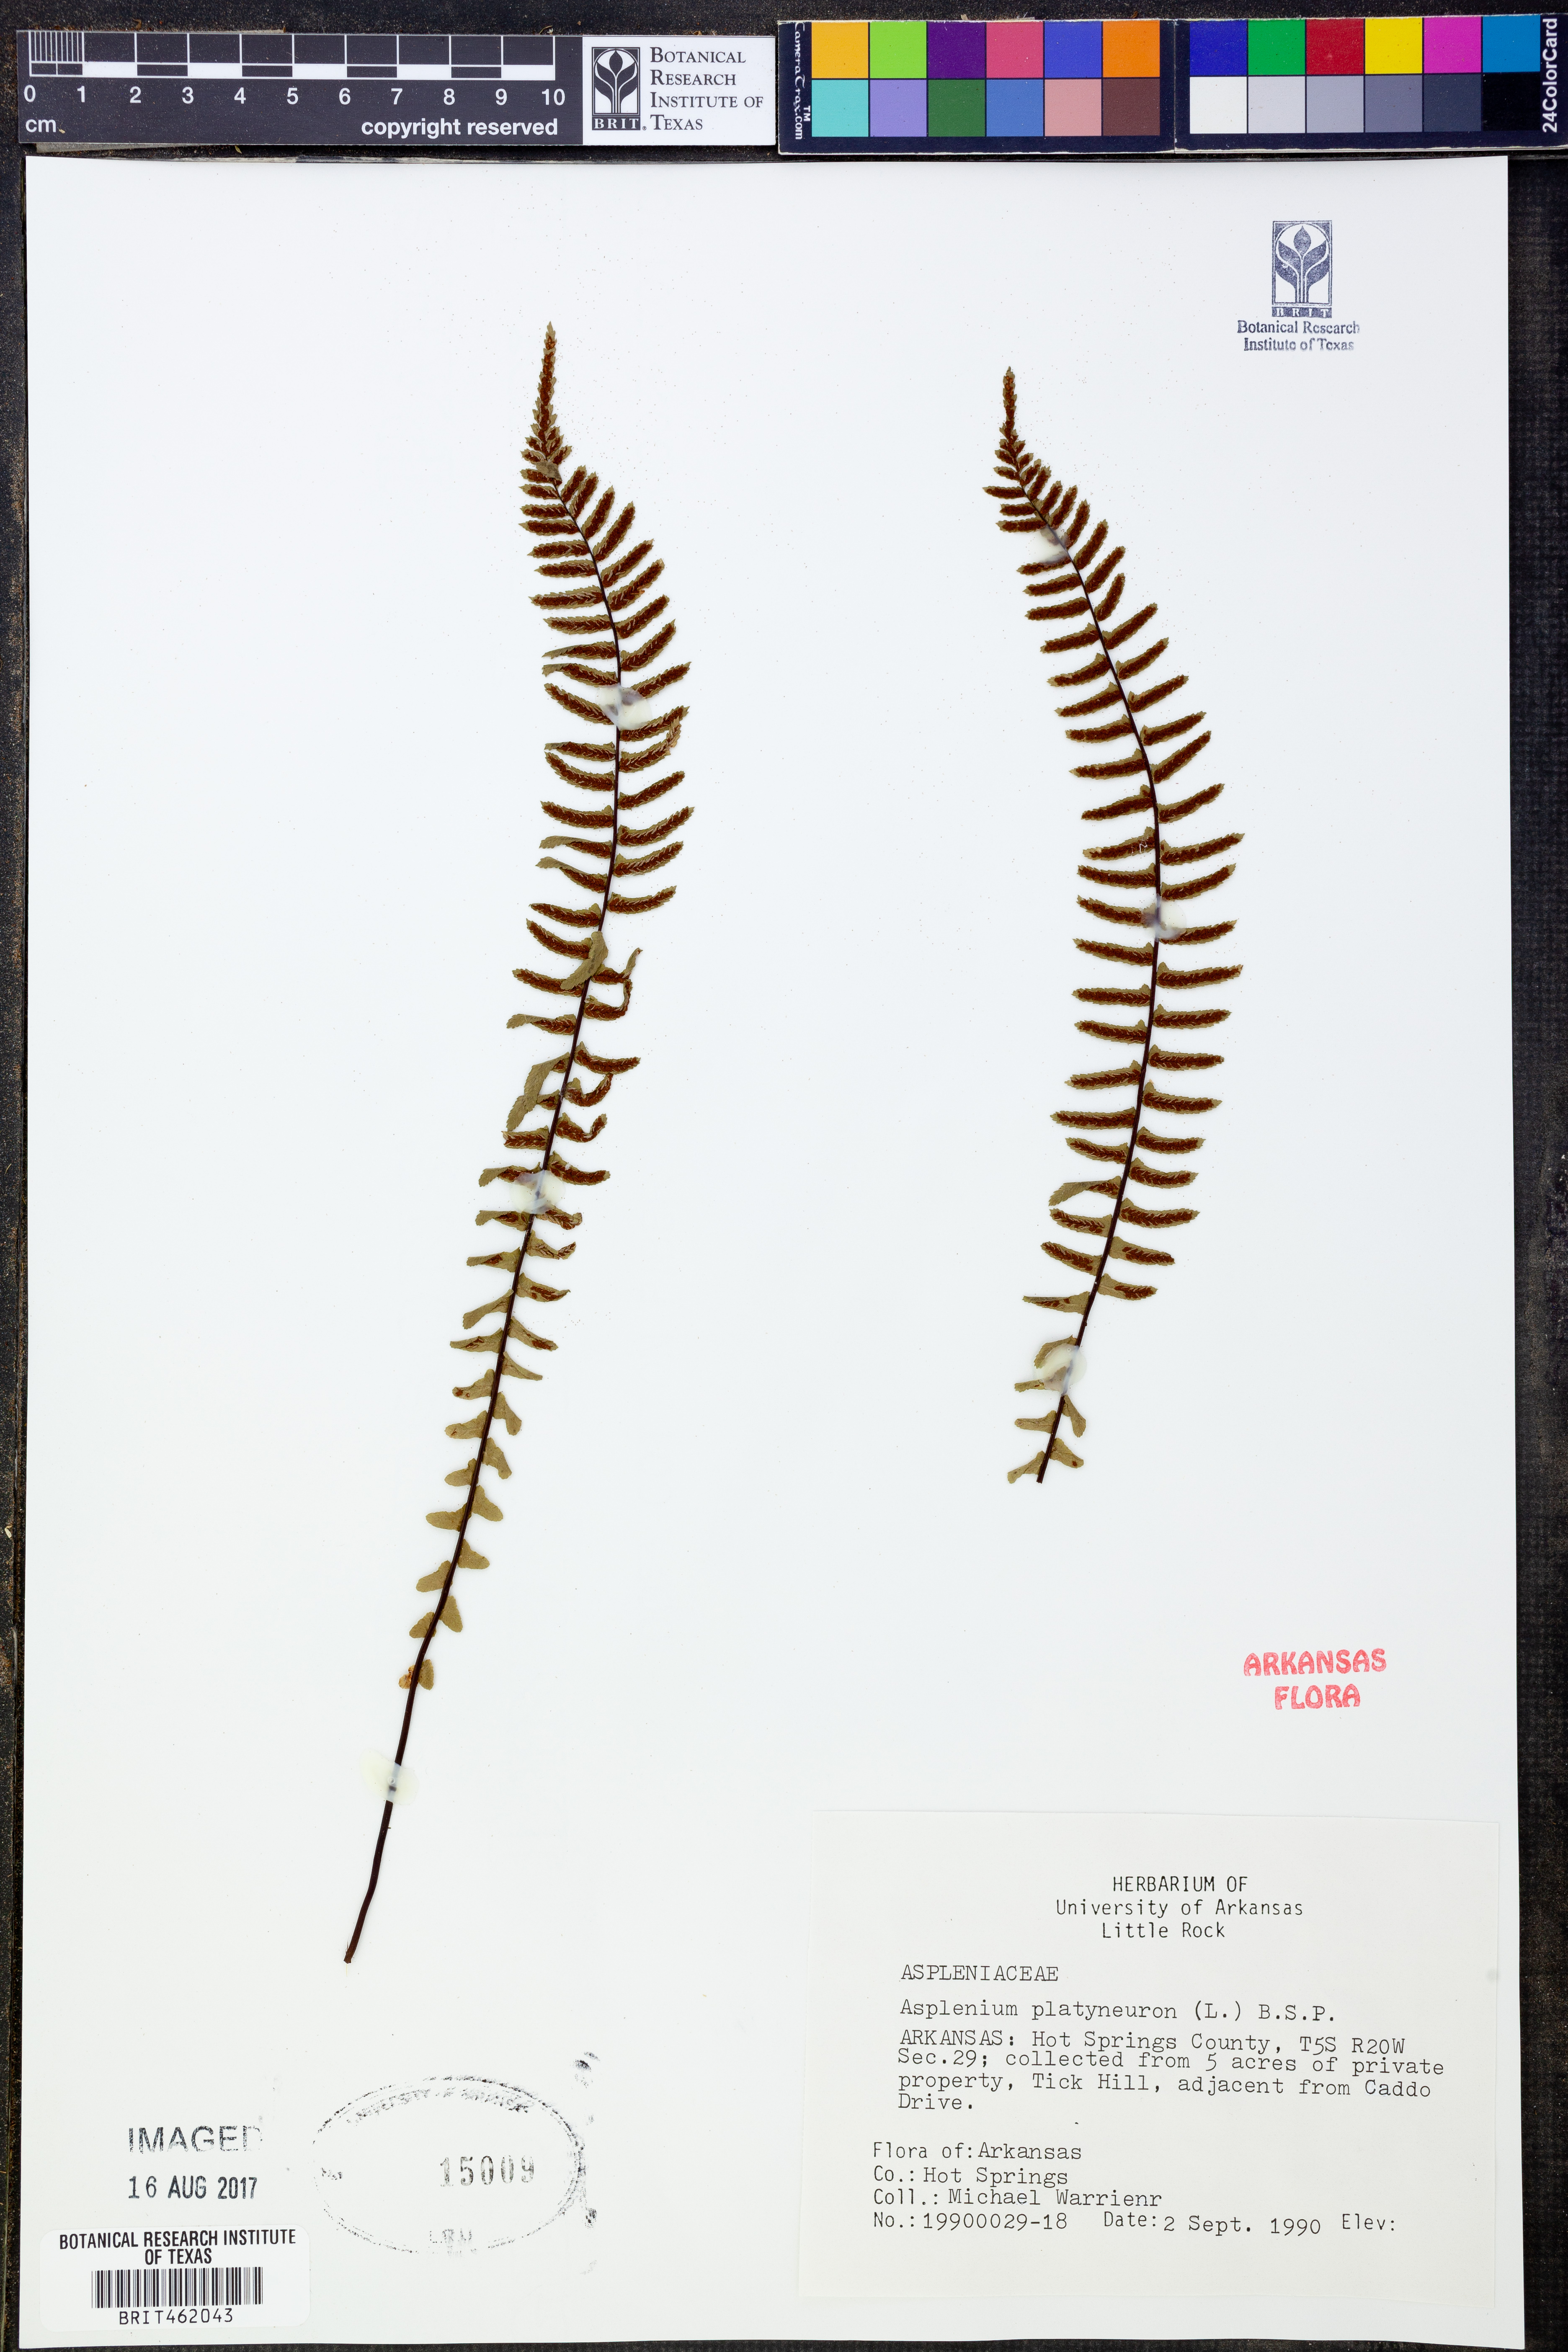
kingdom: Plantae
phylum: Tracheophyta
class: Polypodiopsida
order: Polypodiales
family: Aspleniaceae
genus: Asplenium
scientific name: Asplenium platyneuron
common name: Ebony spleenwort
